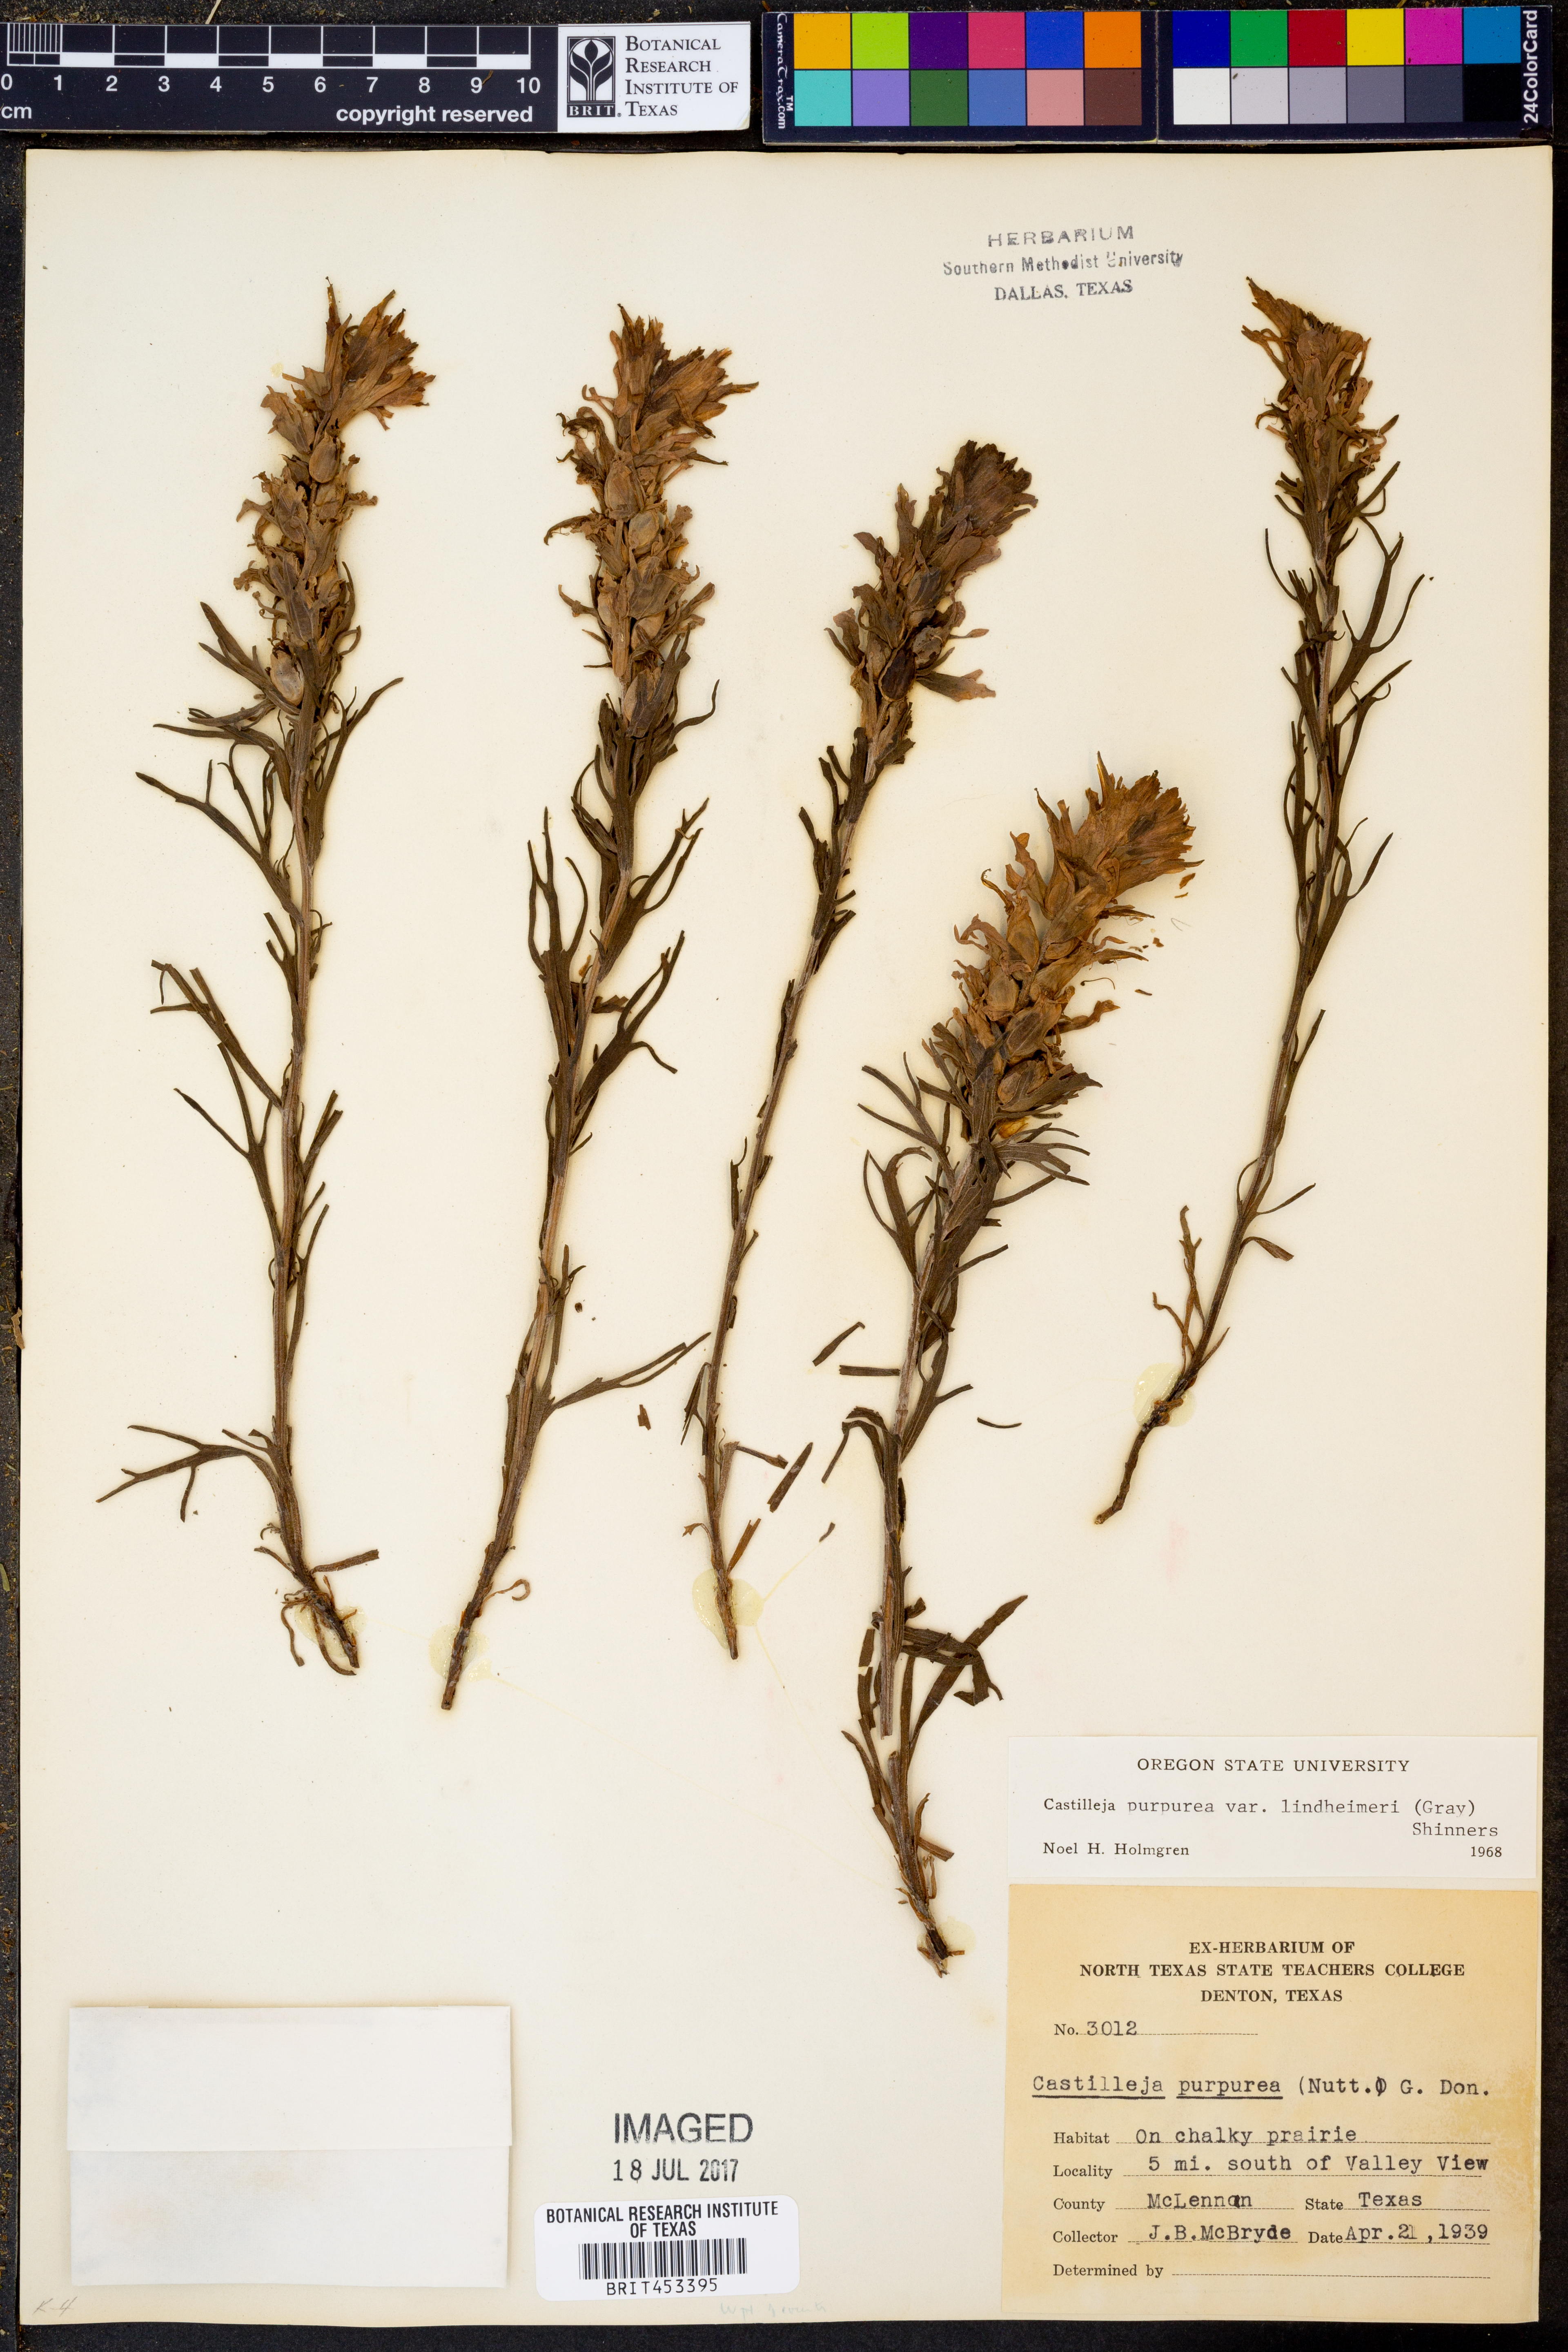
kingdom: Plantae
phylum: Tracheophyta
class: Magnoliopsida
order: Lamiales
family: Orobanchaceae
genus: Castilleja
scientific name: Castilleja lindheimeri
